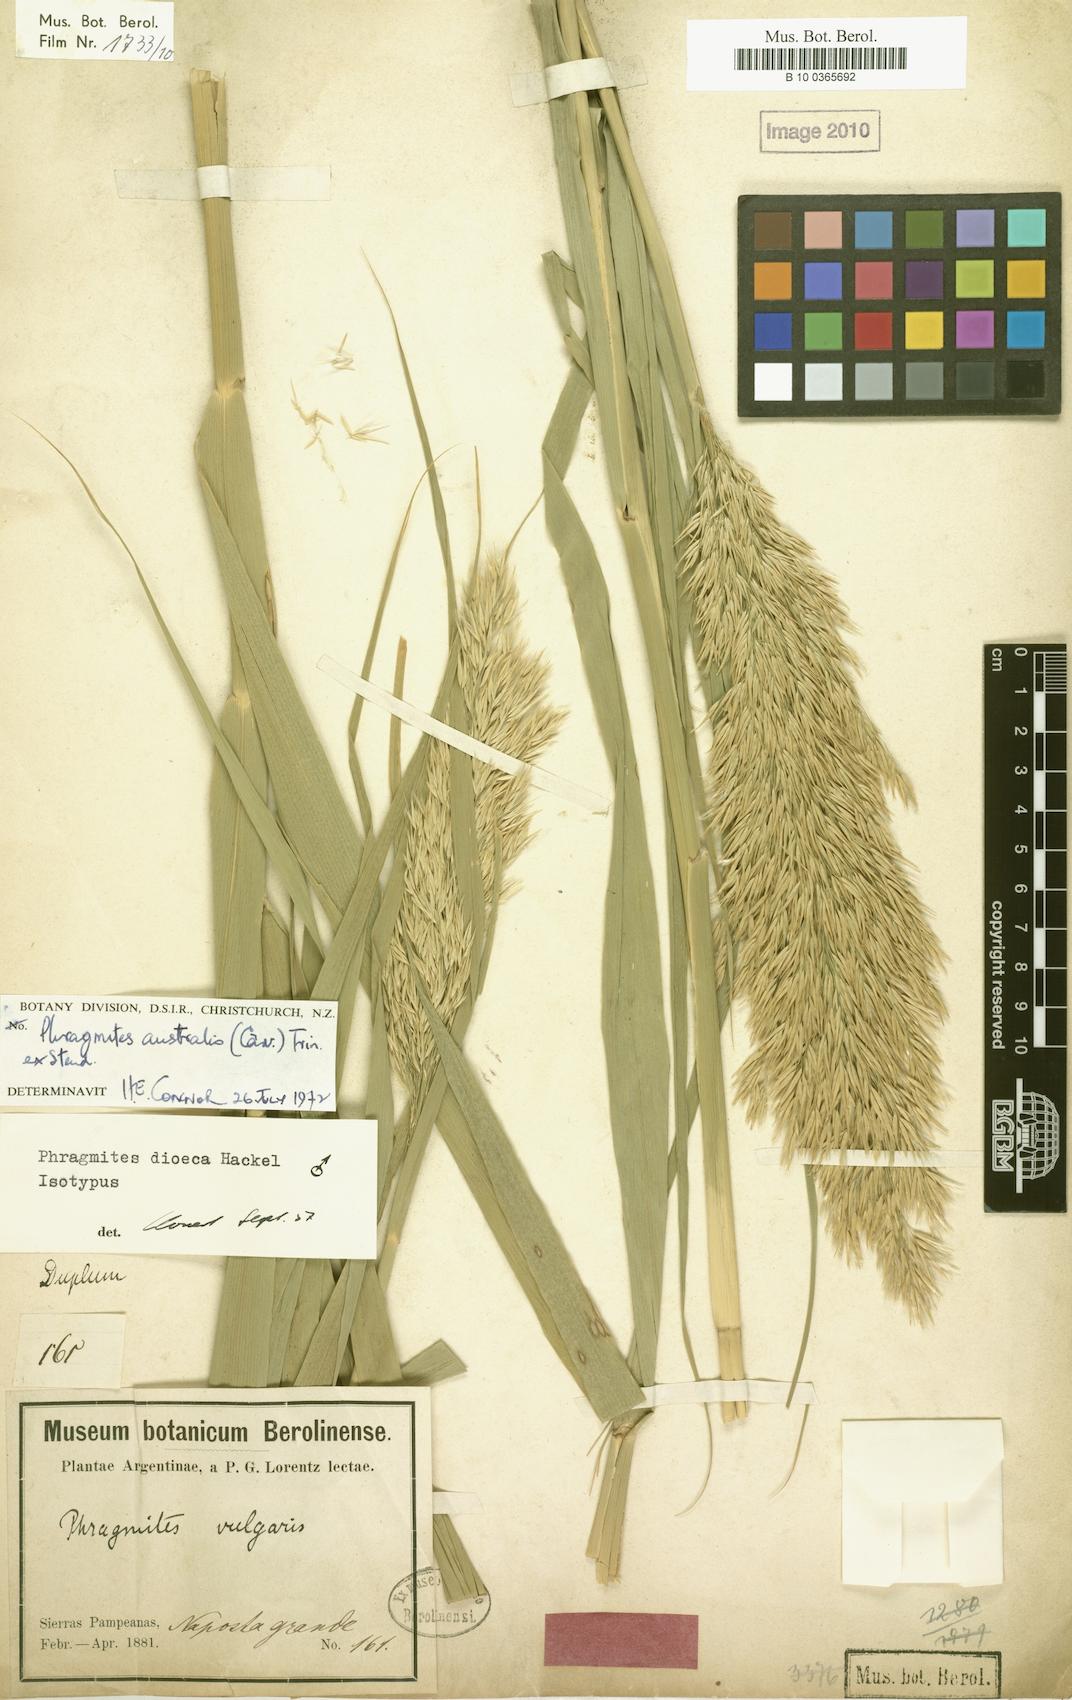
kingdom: Plantae
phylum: Tracheophyta
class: Liliopsida
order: Poales
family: Poaceae
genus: Phragmites
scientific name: Phragmites australis
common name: Common reed
